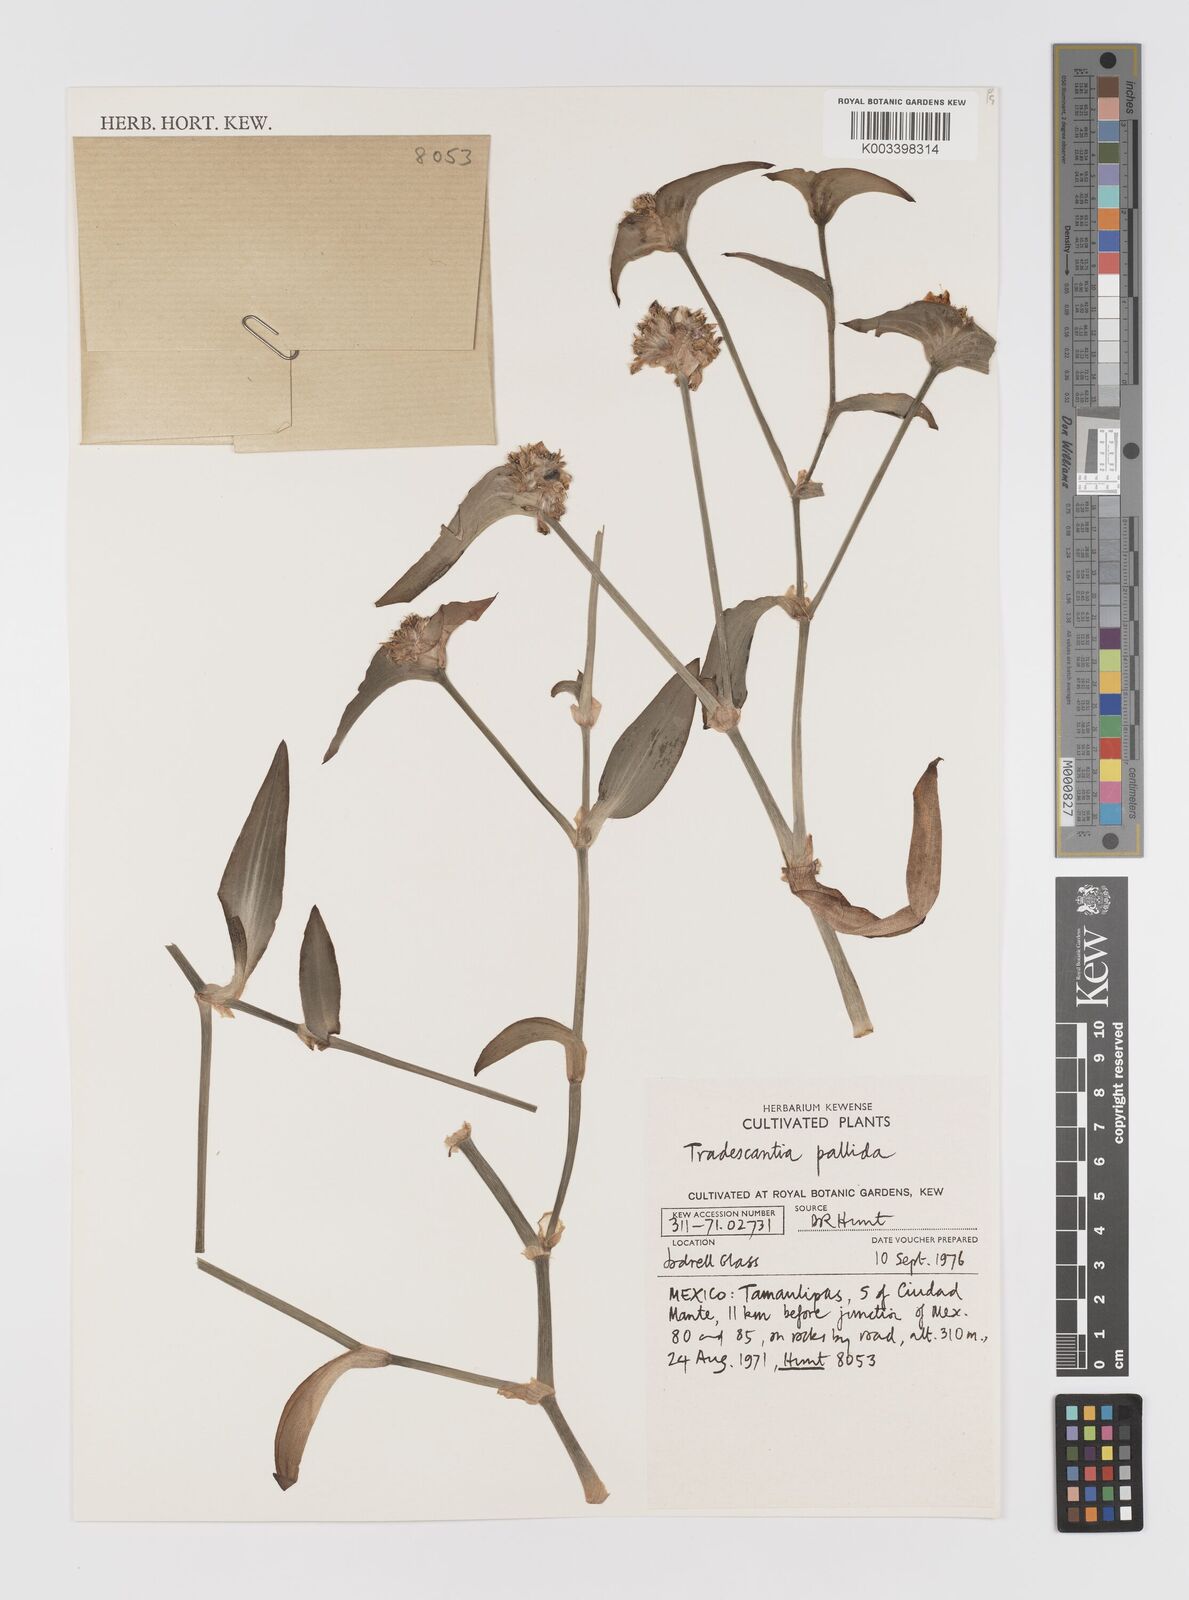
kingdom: Plantae
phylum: Tracheophyta
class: Liliopsida
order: Commelinales
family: Commelinaceae
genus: Tradescantia
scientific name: Tradescantia pallida
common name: Purpleheart
